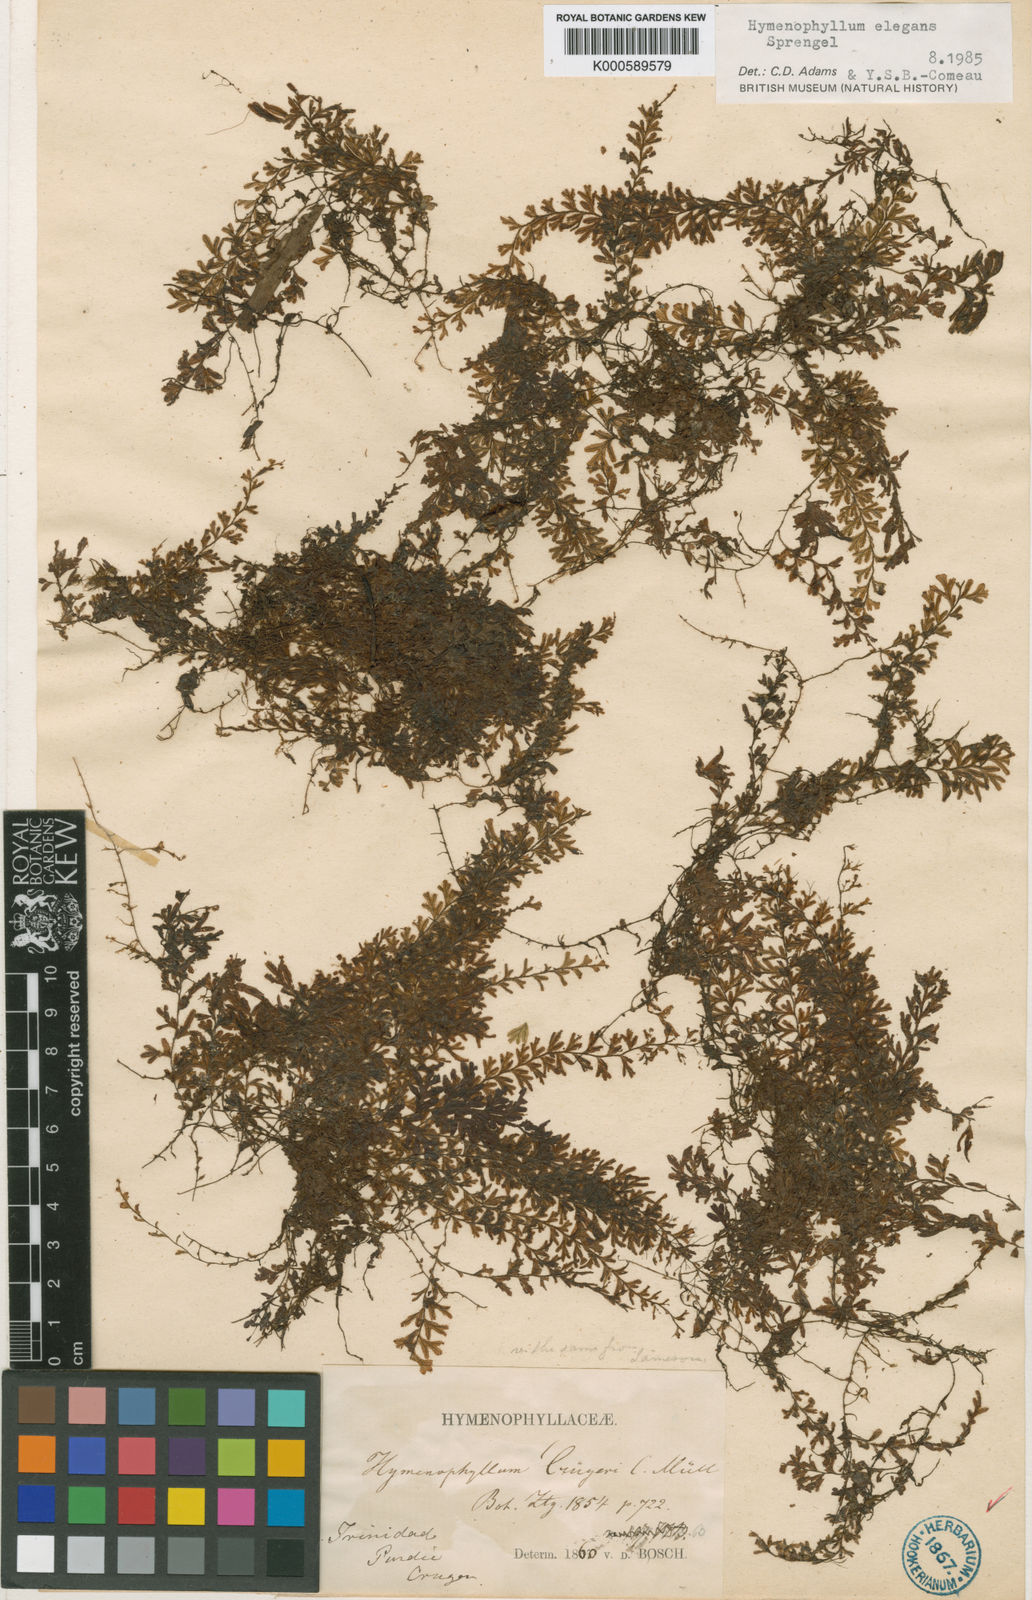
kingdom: Plantae
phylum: Tracheophyta
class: Polypodiopsida
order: Hymenophyllales
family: Hymenophyllaceae
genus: Hymenophyllum
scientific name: Hymenophyllum elegans
